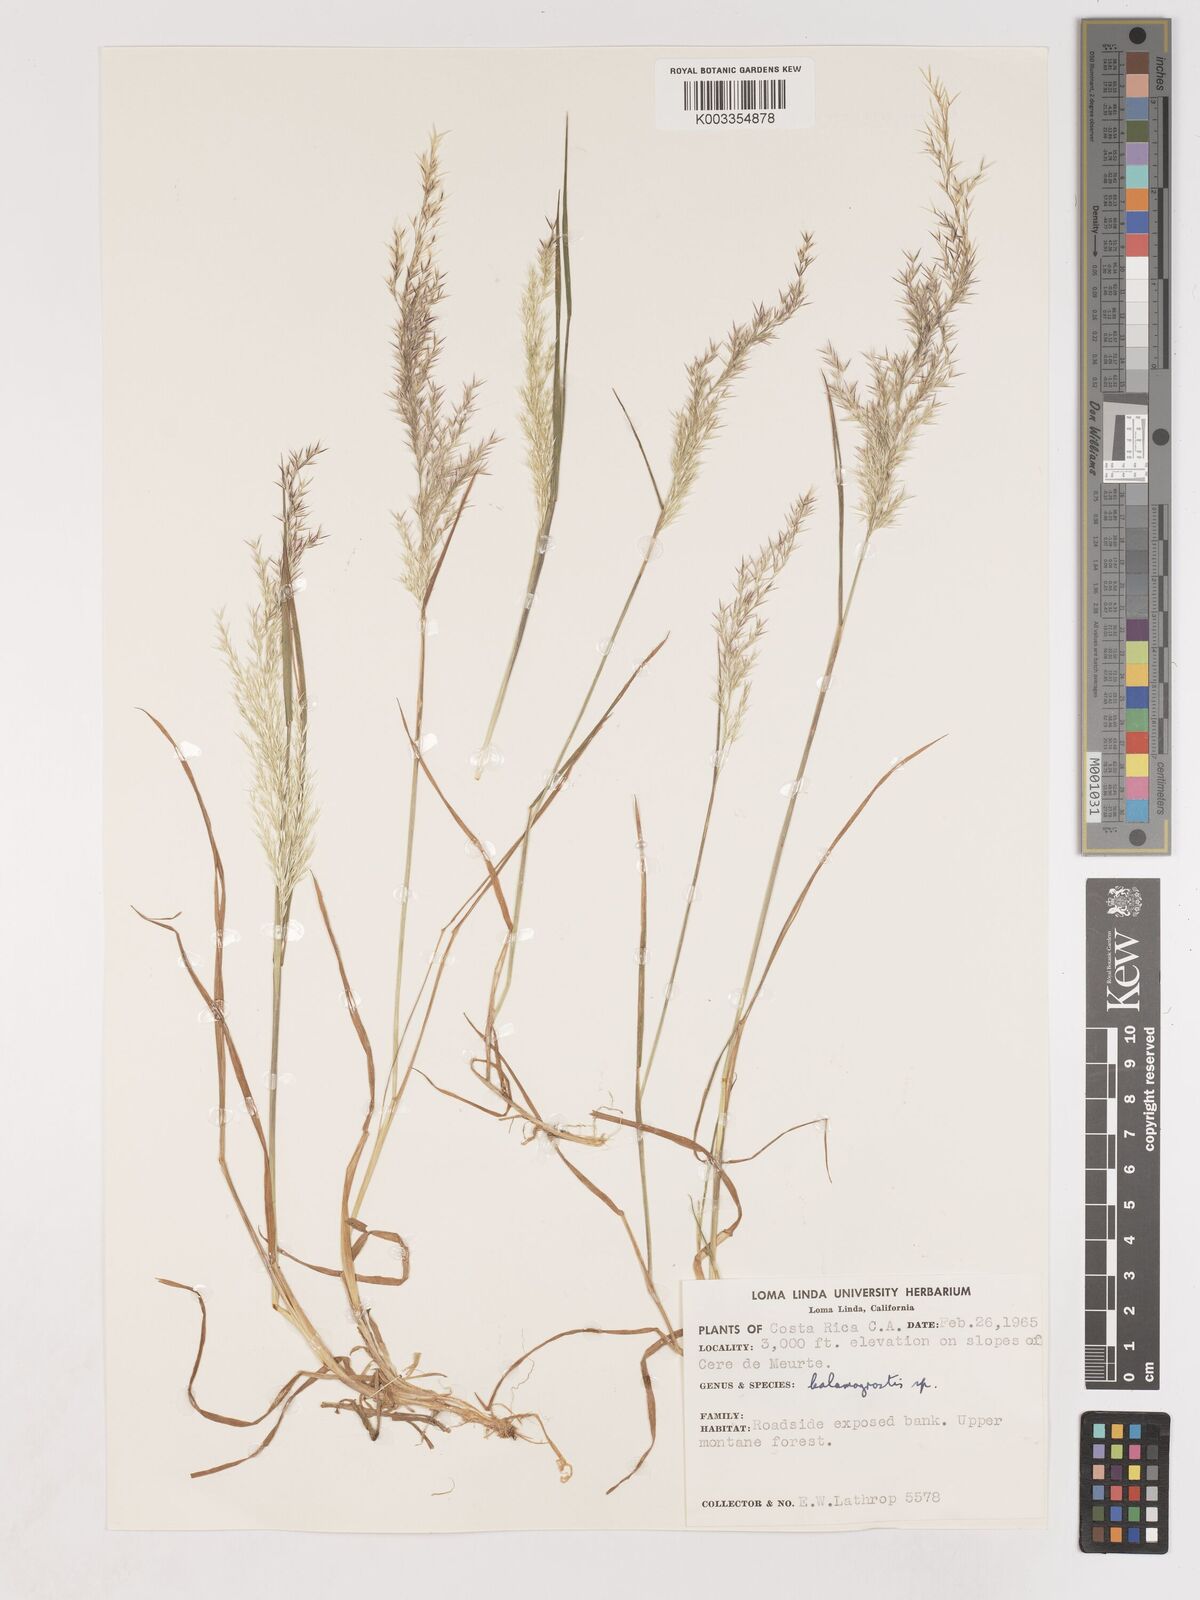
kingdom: Plantae
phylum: Tracheophyta
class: Liliopsida
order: Poales
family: Poaceae
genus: Calamagrostis
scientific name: Calamagrostis
